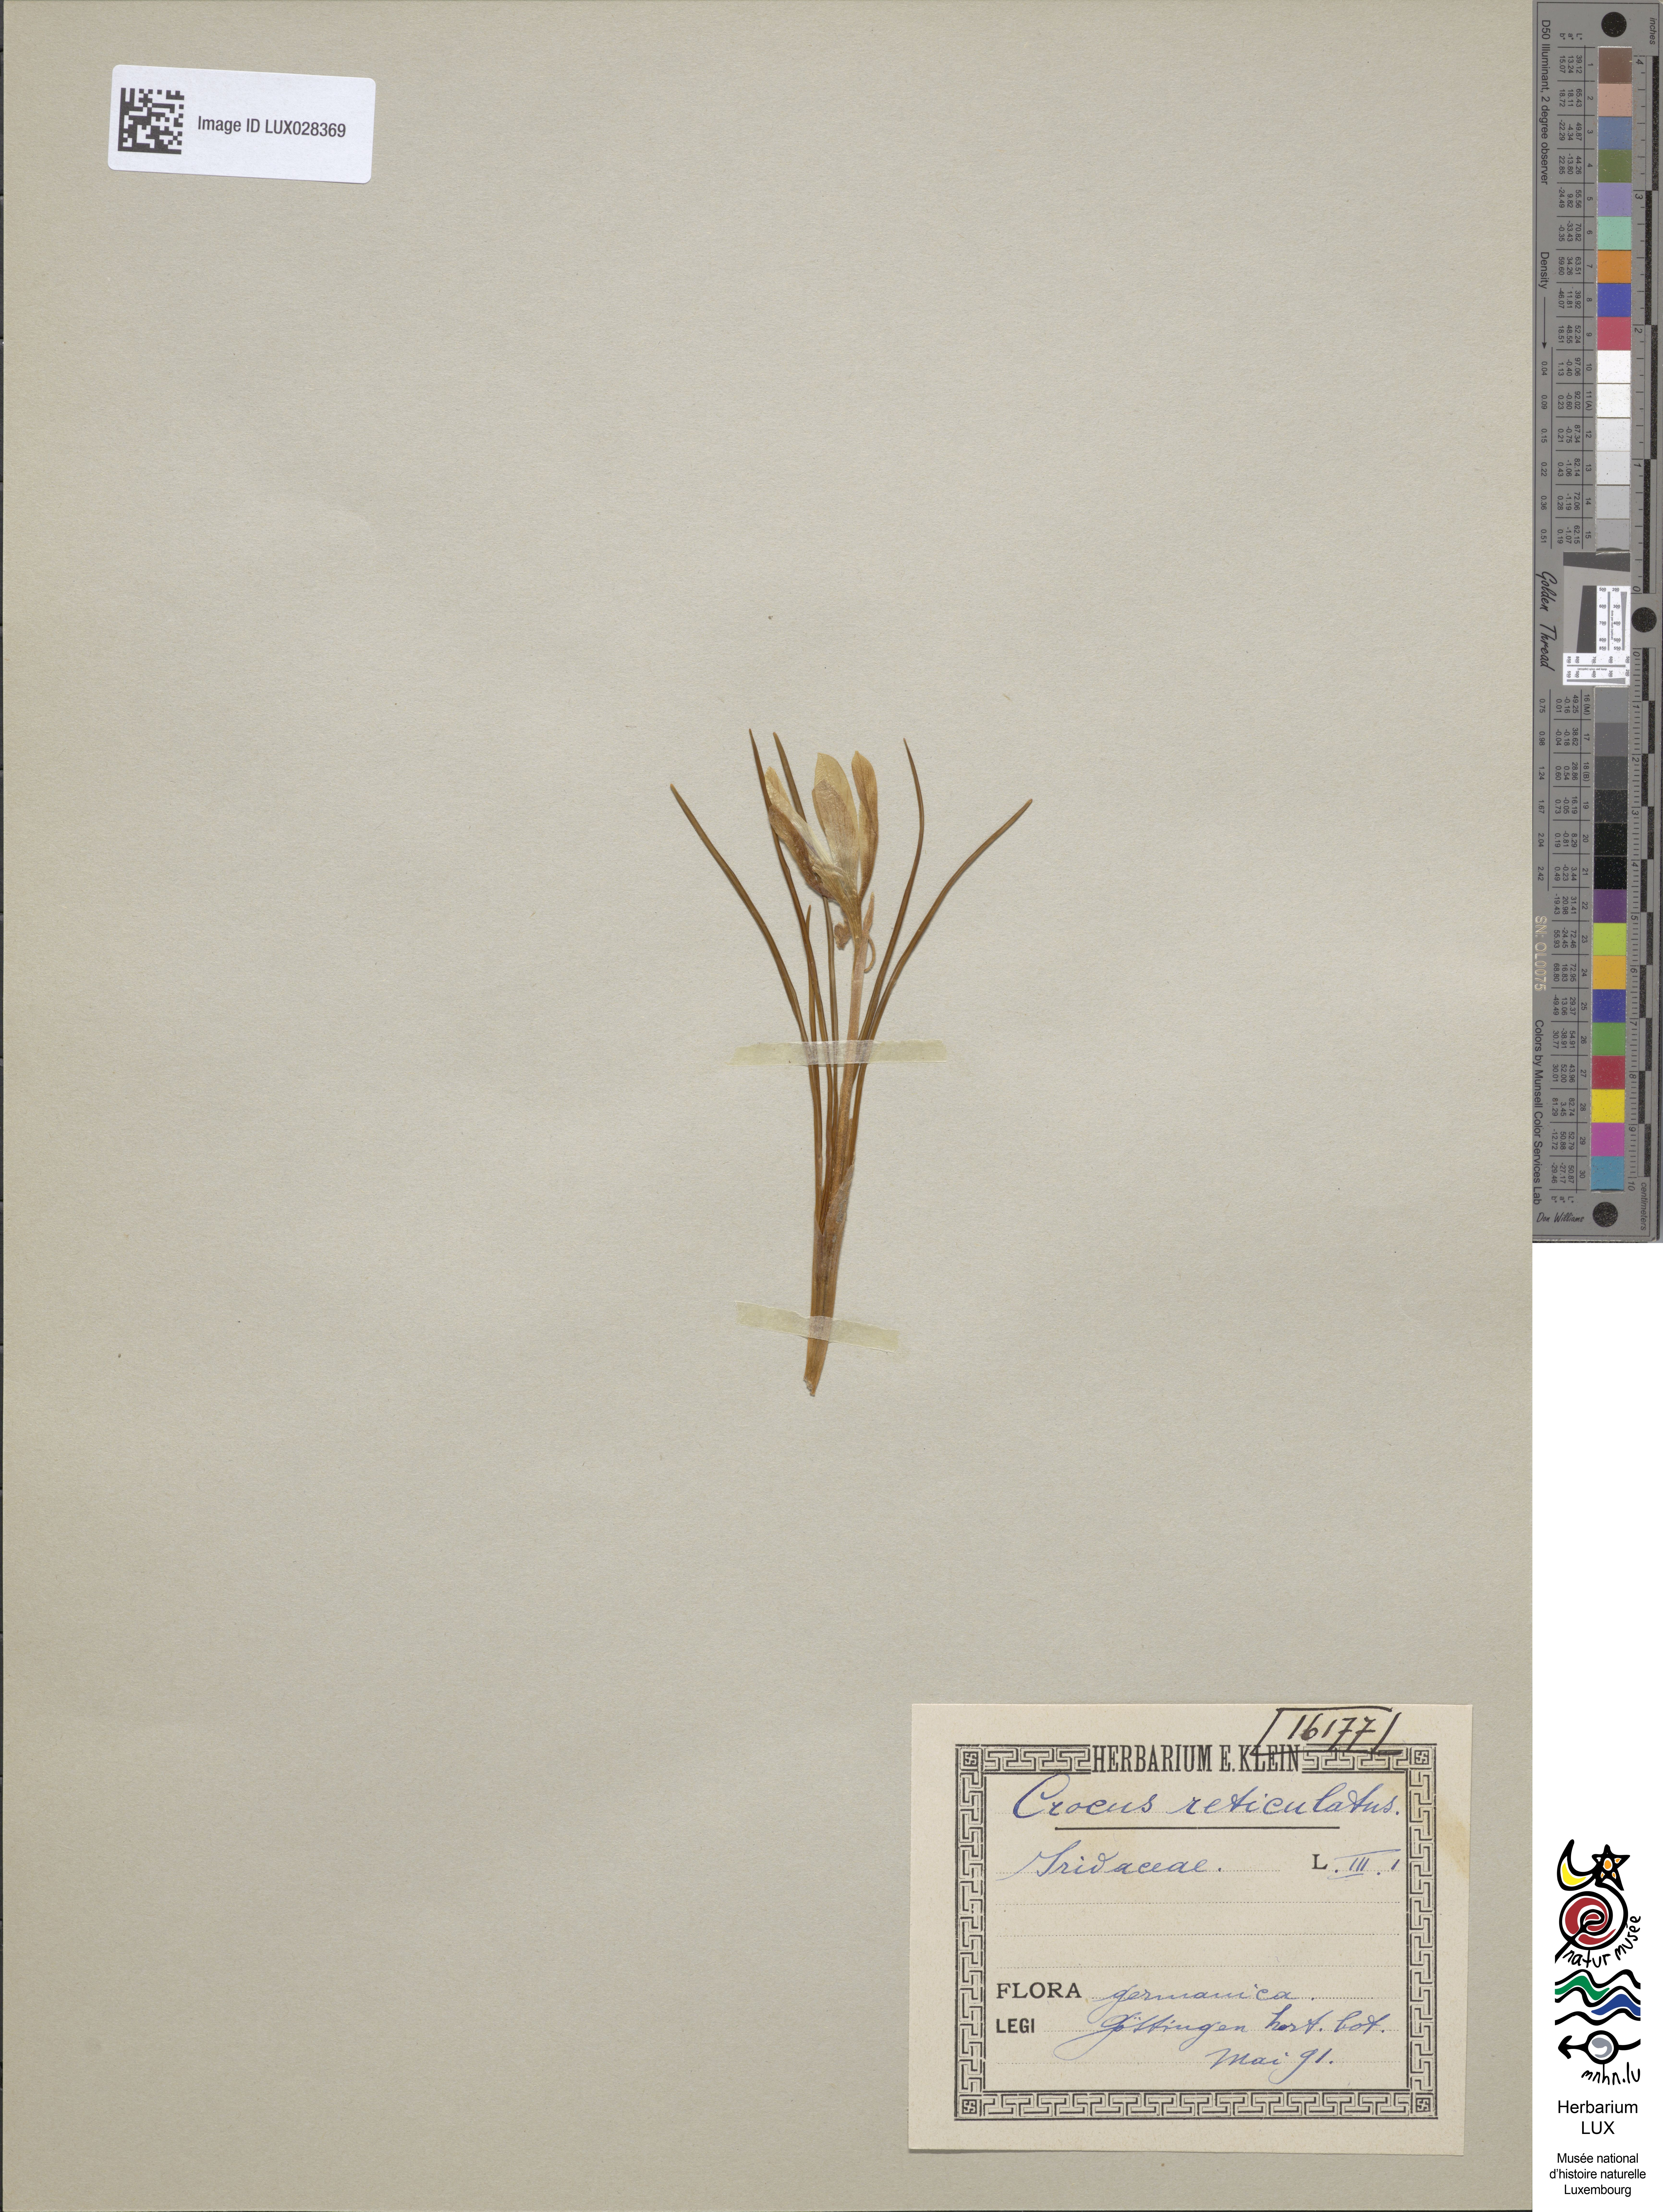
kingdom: Plantae
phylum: Tracheophyta
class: Liliopsida
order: Asparagales
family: Iridaceae
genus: Crocus
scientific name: Crocus reticulatus
